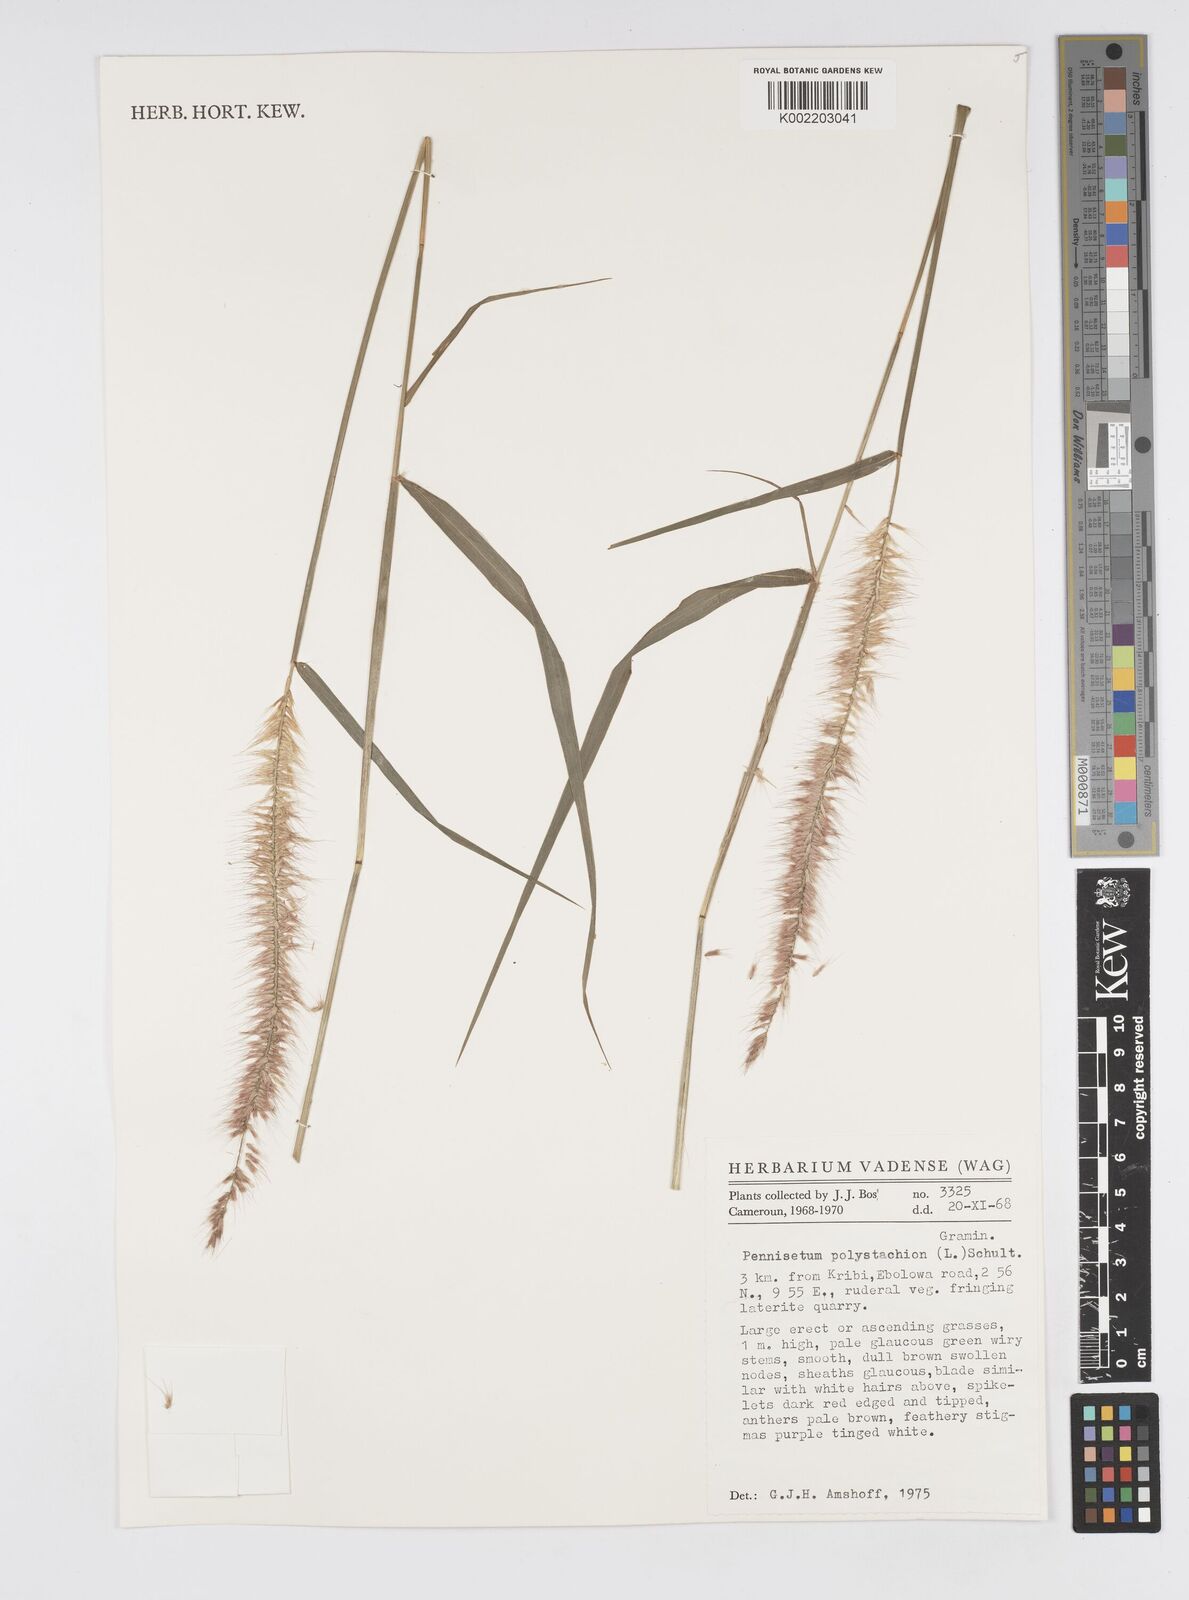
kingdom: Plantae
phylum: Tracheophyta
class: Liliopsida
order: Poales
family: Poaceae
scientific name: Poaceae
